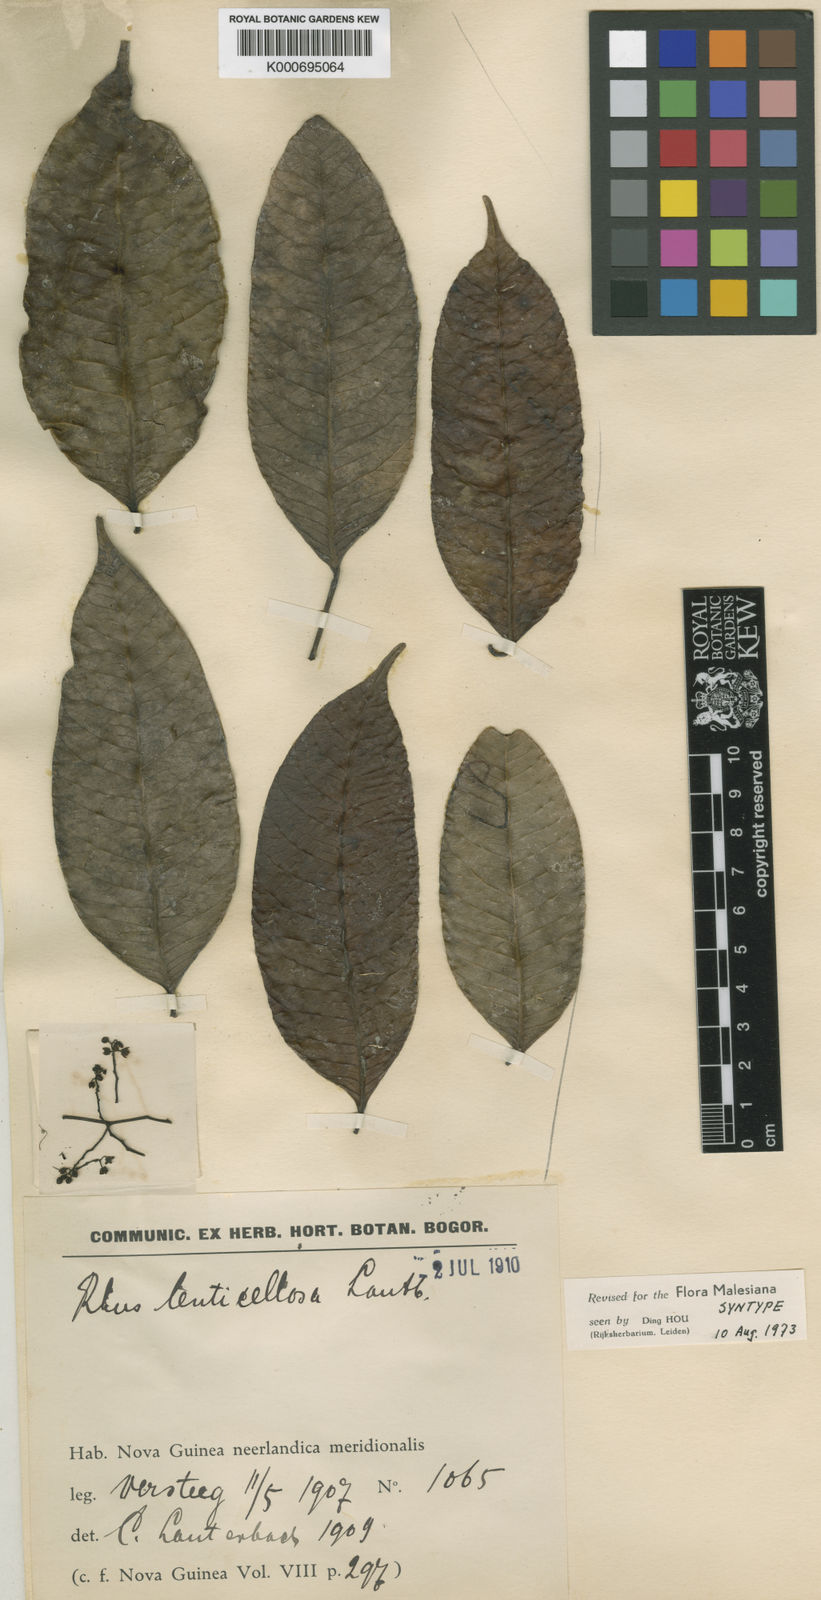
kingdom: Plantae
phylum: Tracheophyta
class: Magnoliopsida
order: Sapindales
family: Anacardiaceae
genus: Rhus
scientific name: Rhus lenticellosa
